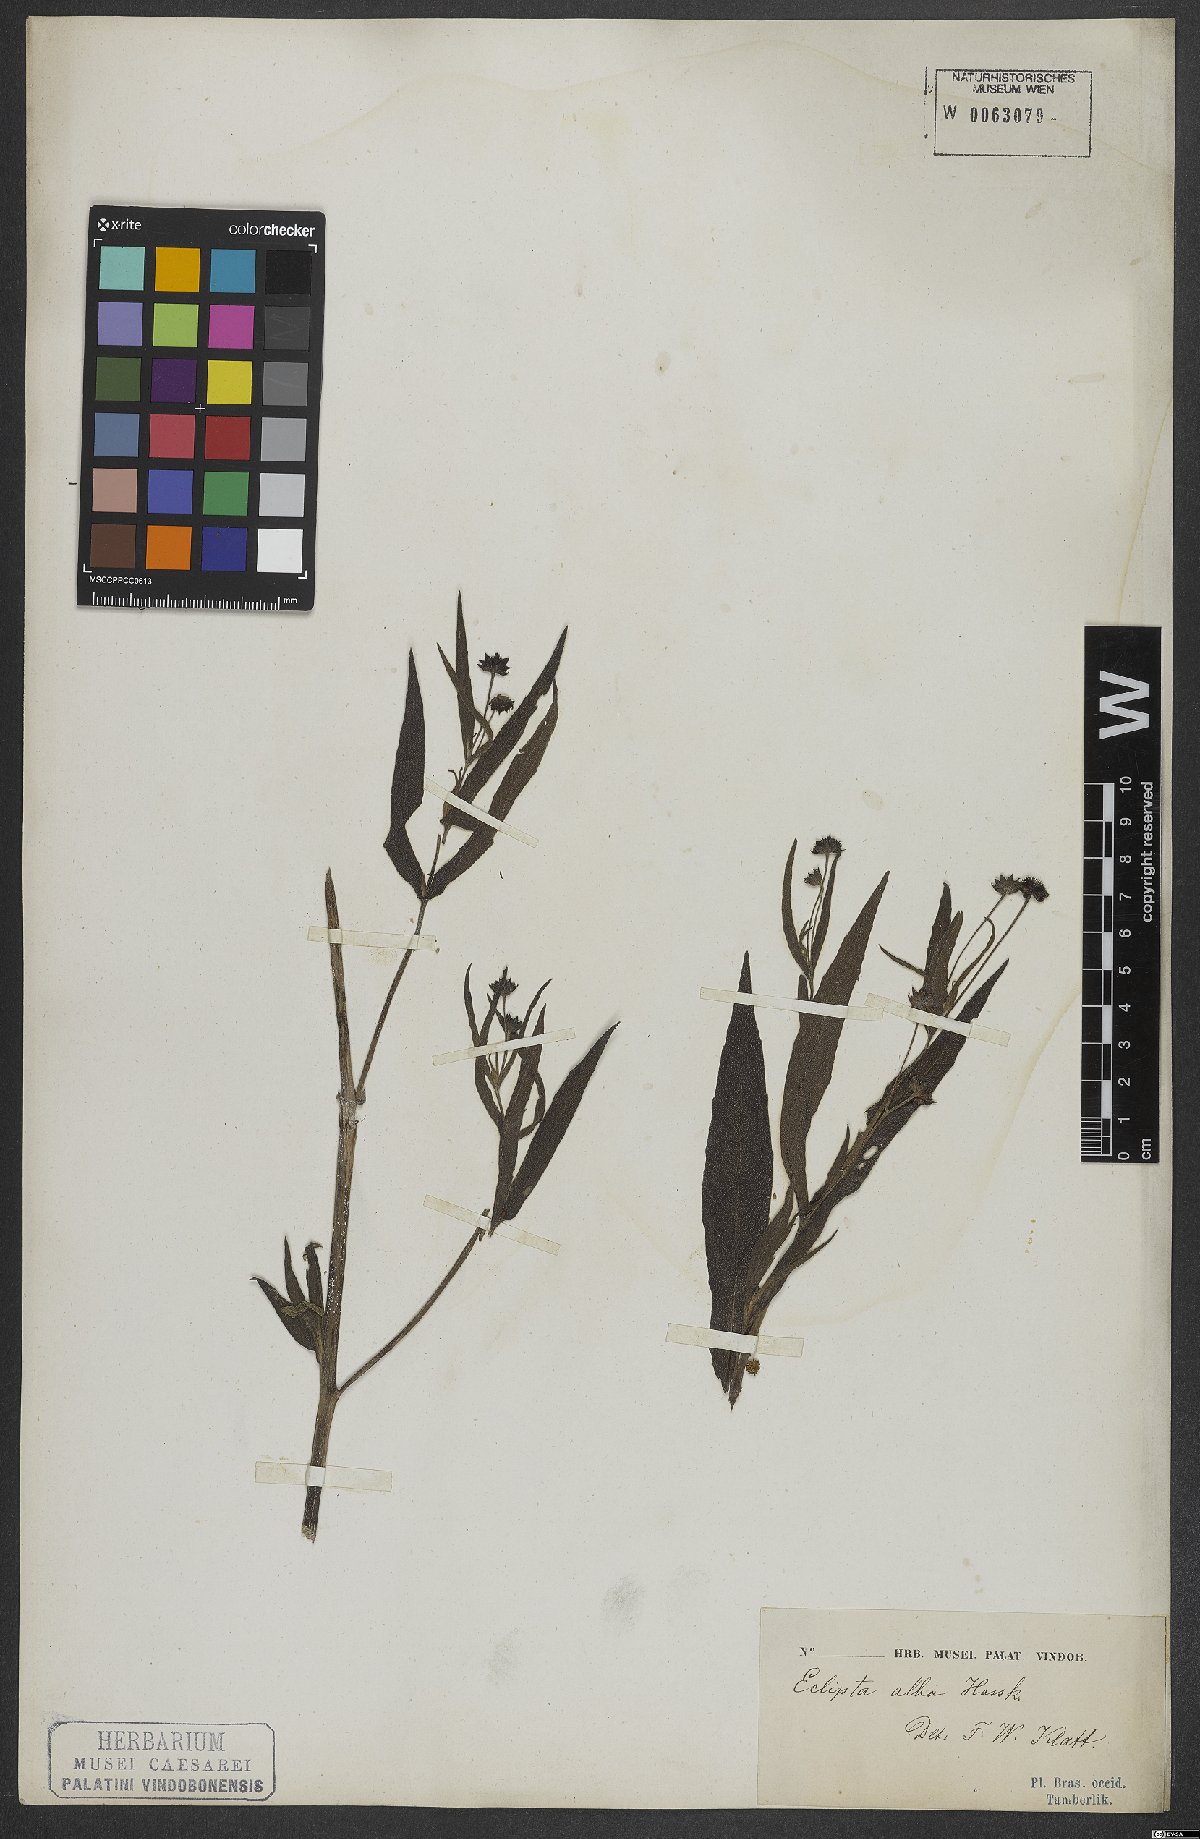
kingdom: Plantae
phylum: Tracheophyta
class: Magnoliopsida
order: Asterales
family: Asteraceae
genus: Eclipta
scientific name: Eclipta alba
